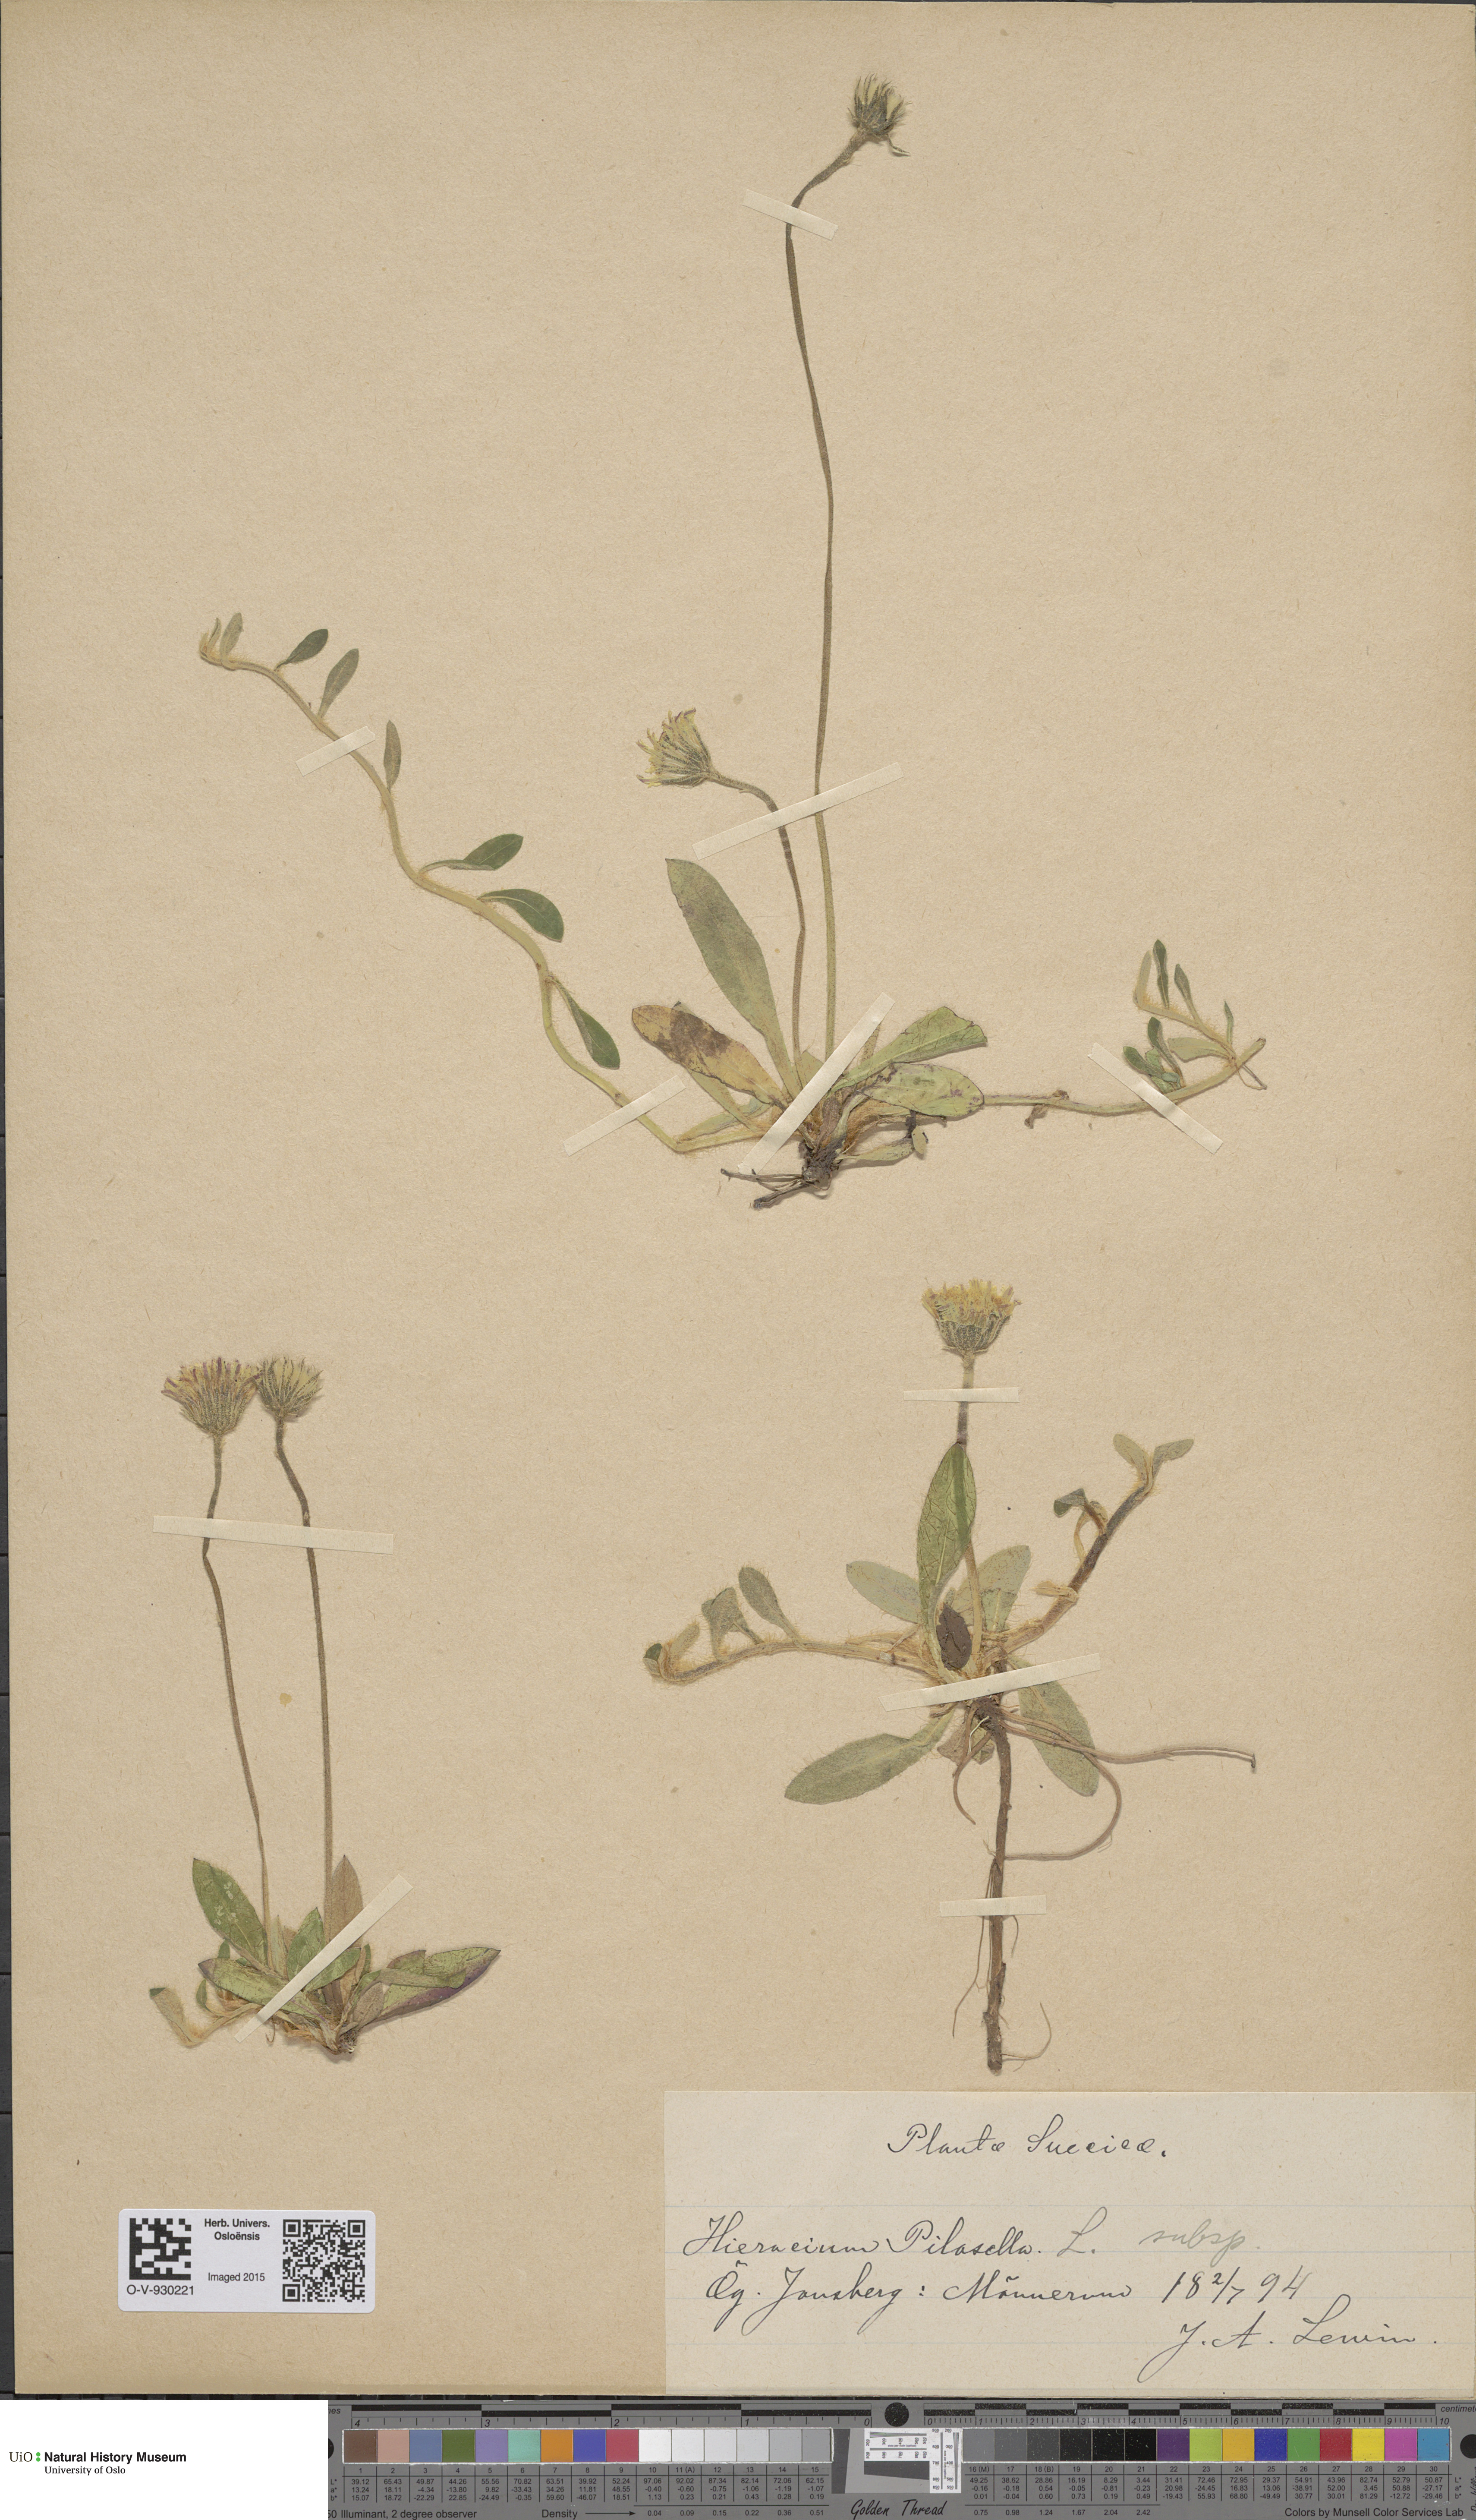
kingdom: Plantae
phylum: Tracheophyta
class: Magnoliopsida
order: Asterales
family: Asteraceae
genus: Pilosella
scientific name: Pilosella officinarum
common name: Mouse-ear hawkweed
